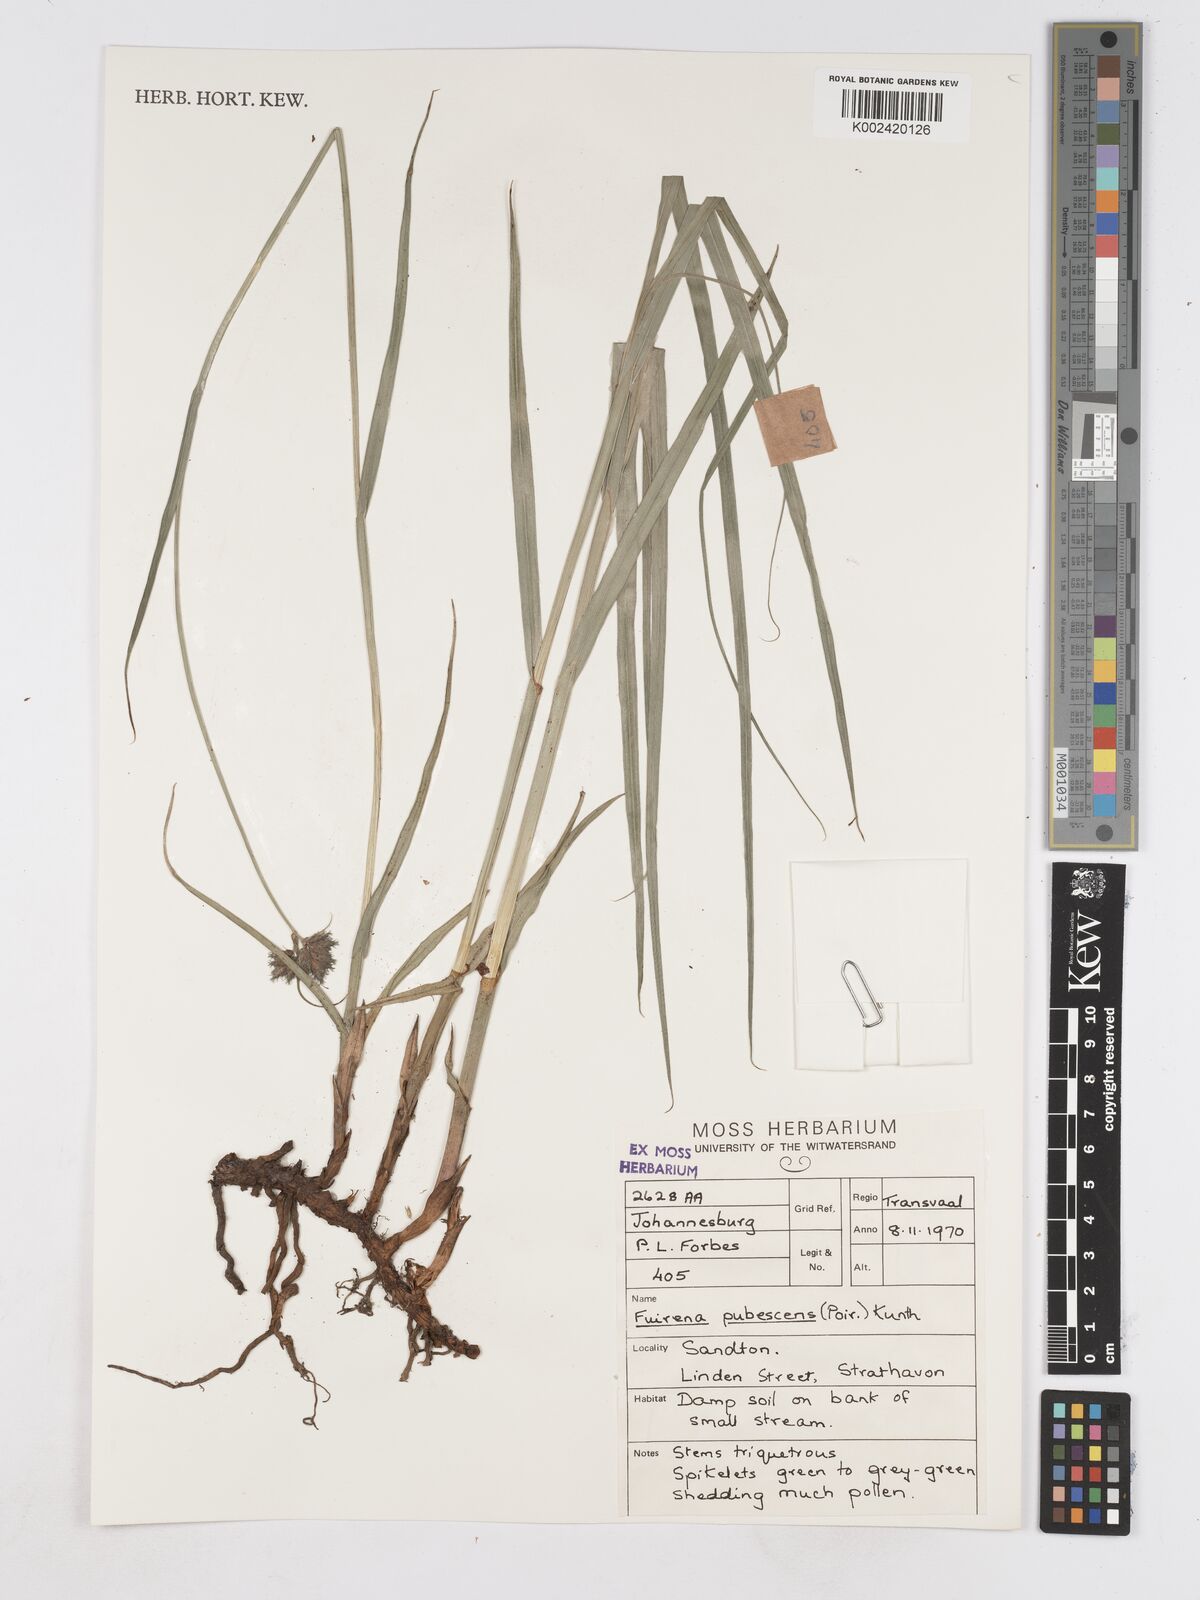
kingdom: Plantae
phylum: Tracheophyta
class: Liliopsida
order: Poales
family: Cyperaceae
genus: Fuirena
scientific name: Fuirena pubescens
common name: Hairy sedge
